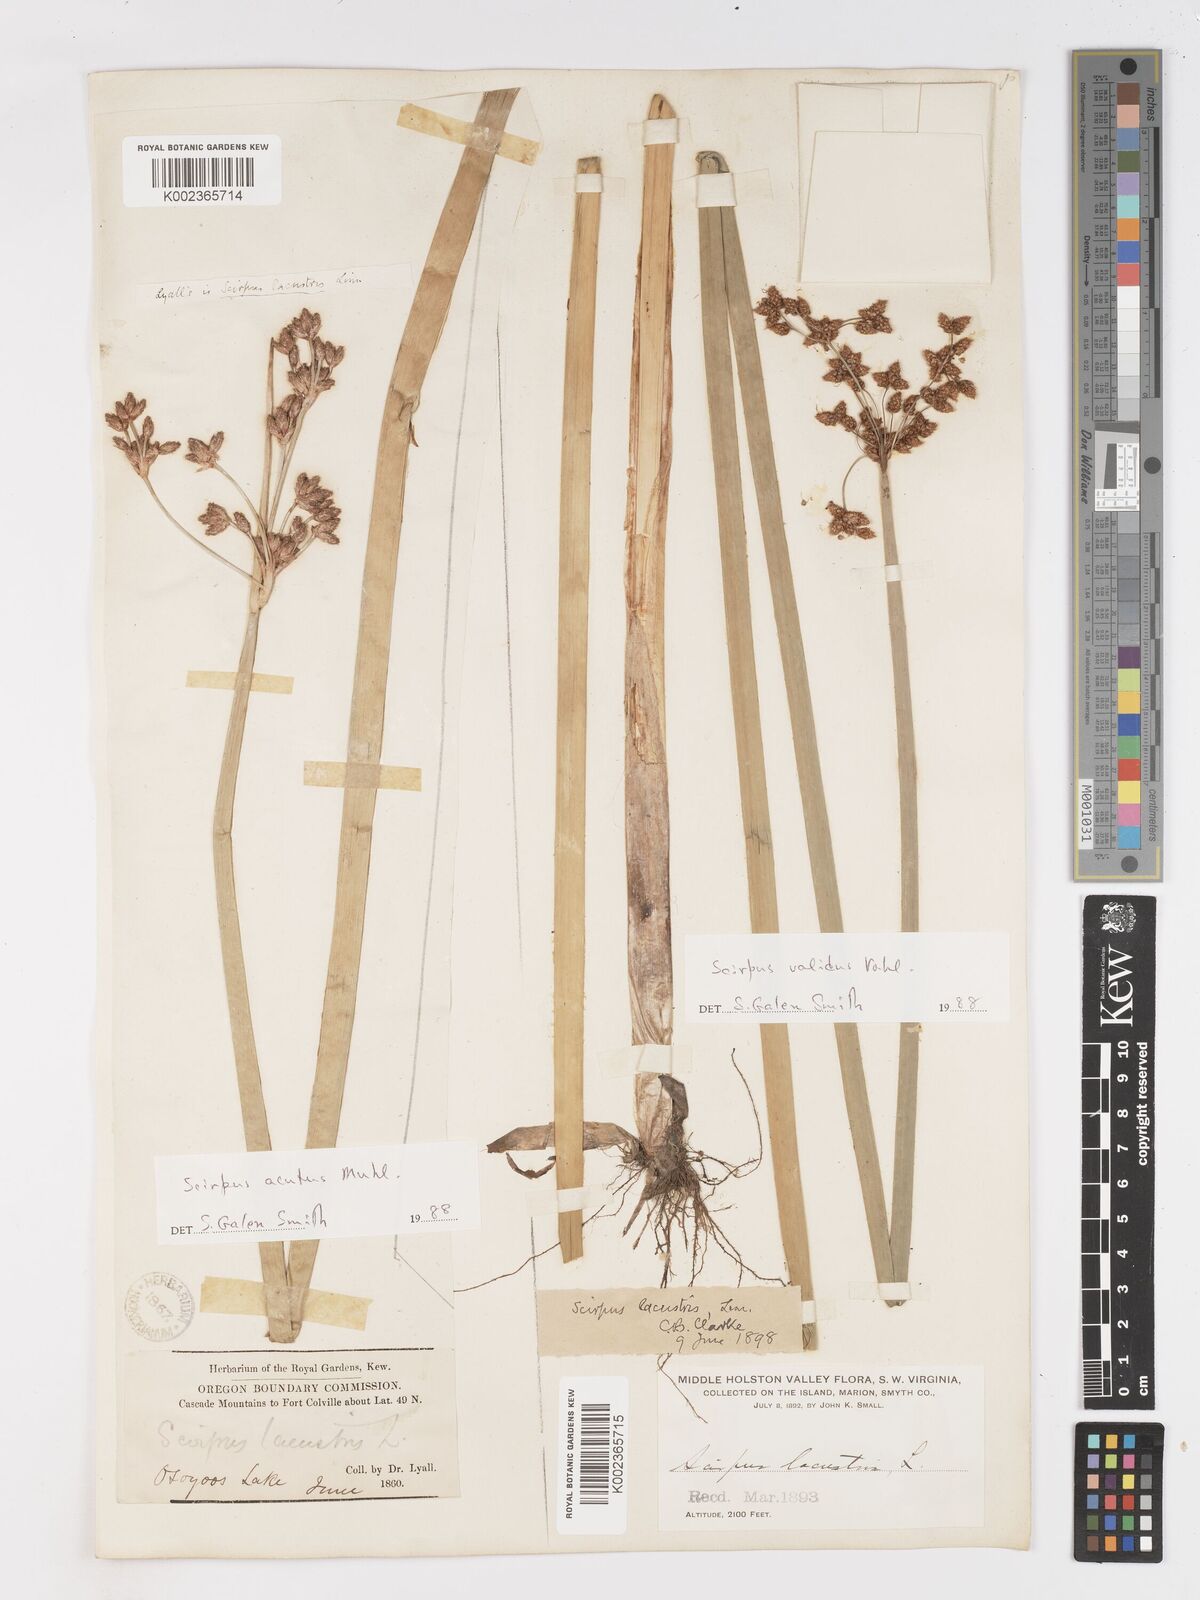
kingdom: Plantae
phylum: Tracheophyta
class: Liliopsida
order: Poales
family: Cyperaceae
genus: Schoenoplectus
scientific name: Schoenoplectus acutus
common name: Hardstem bulrush
